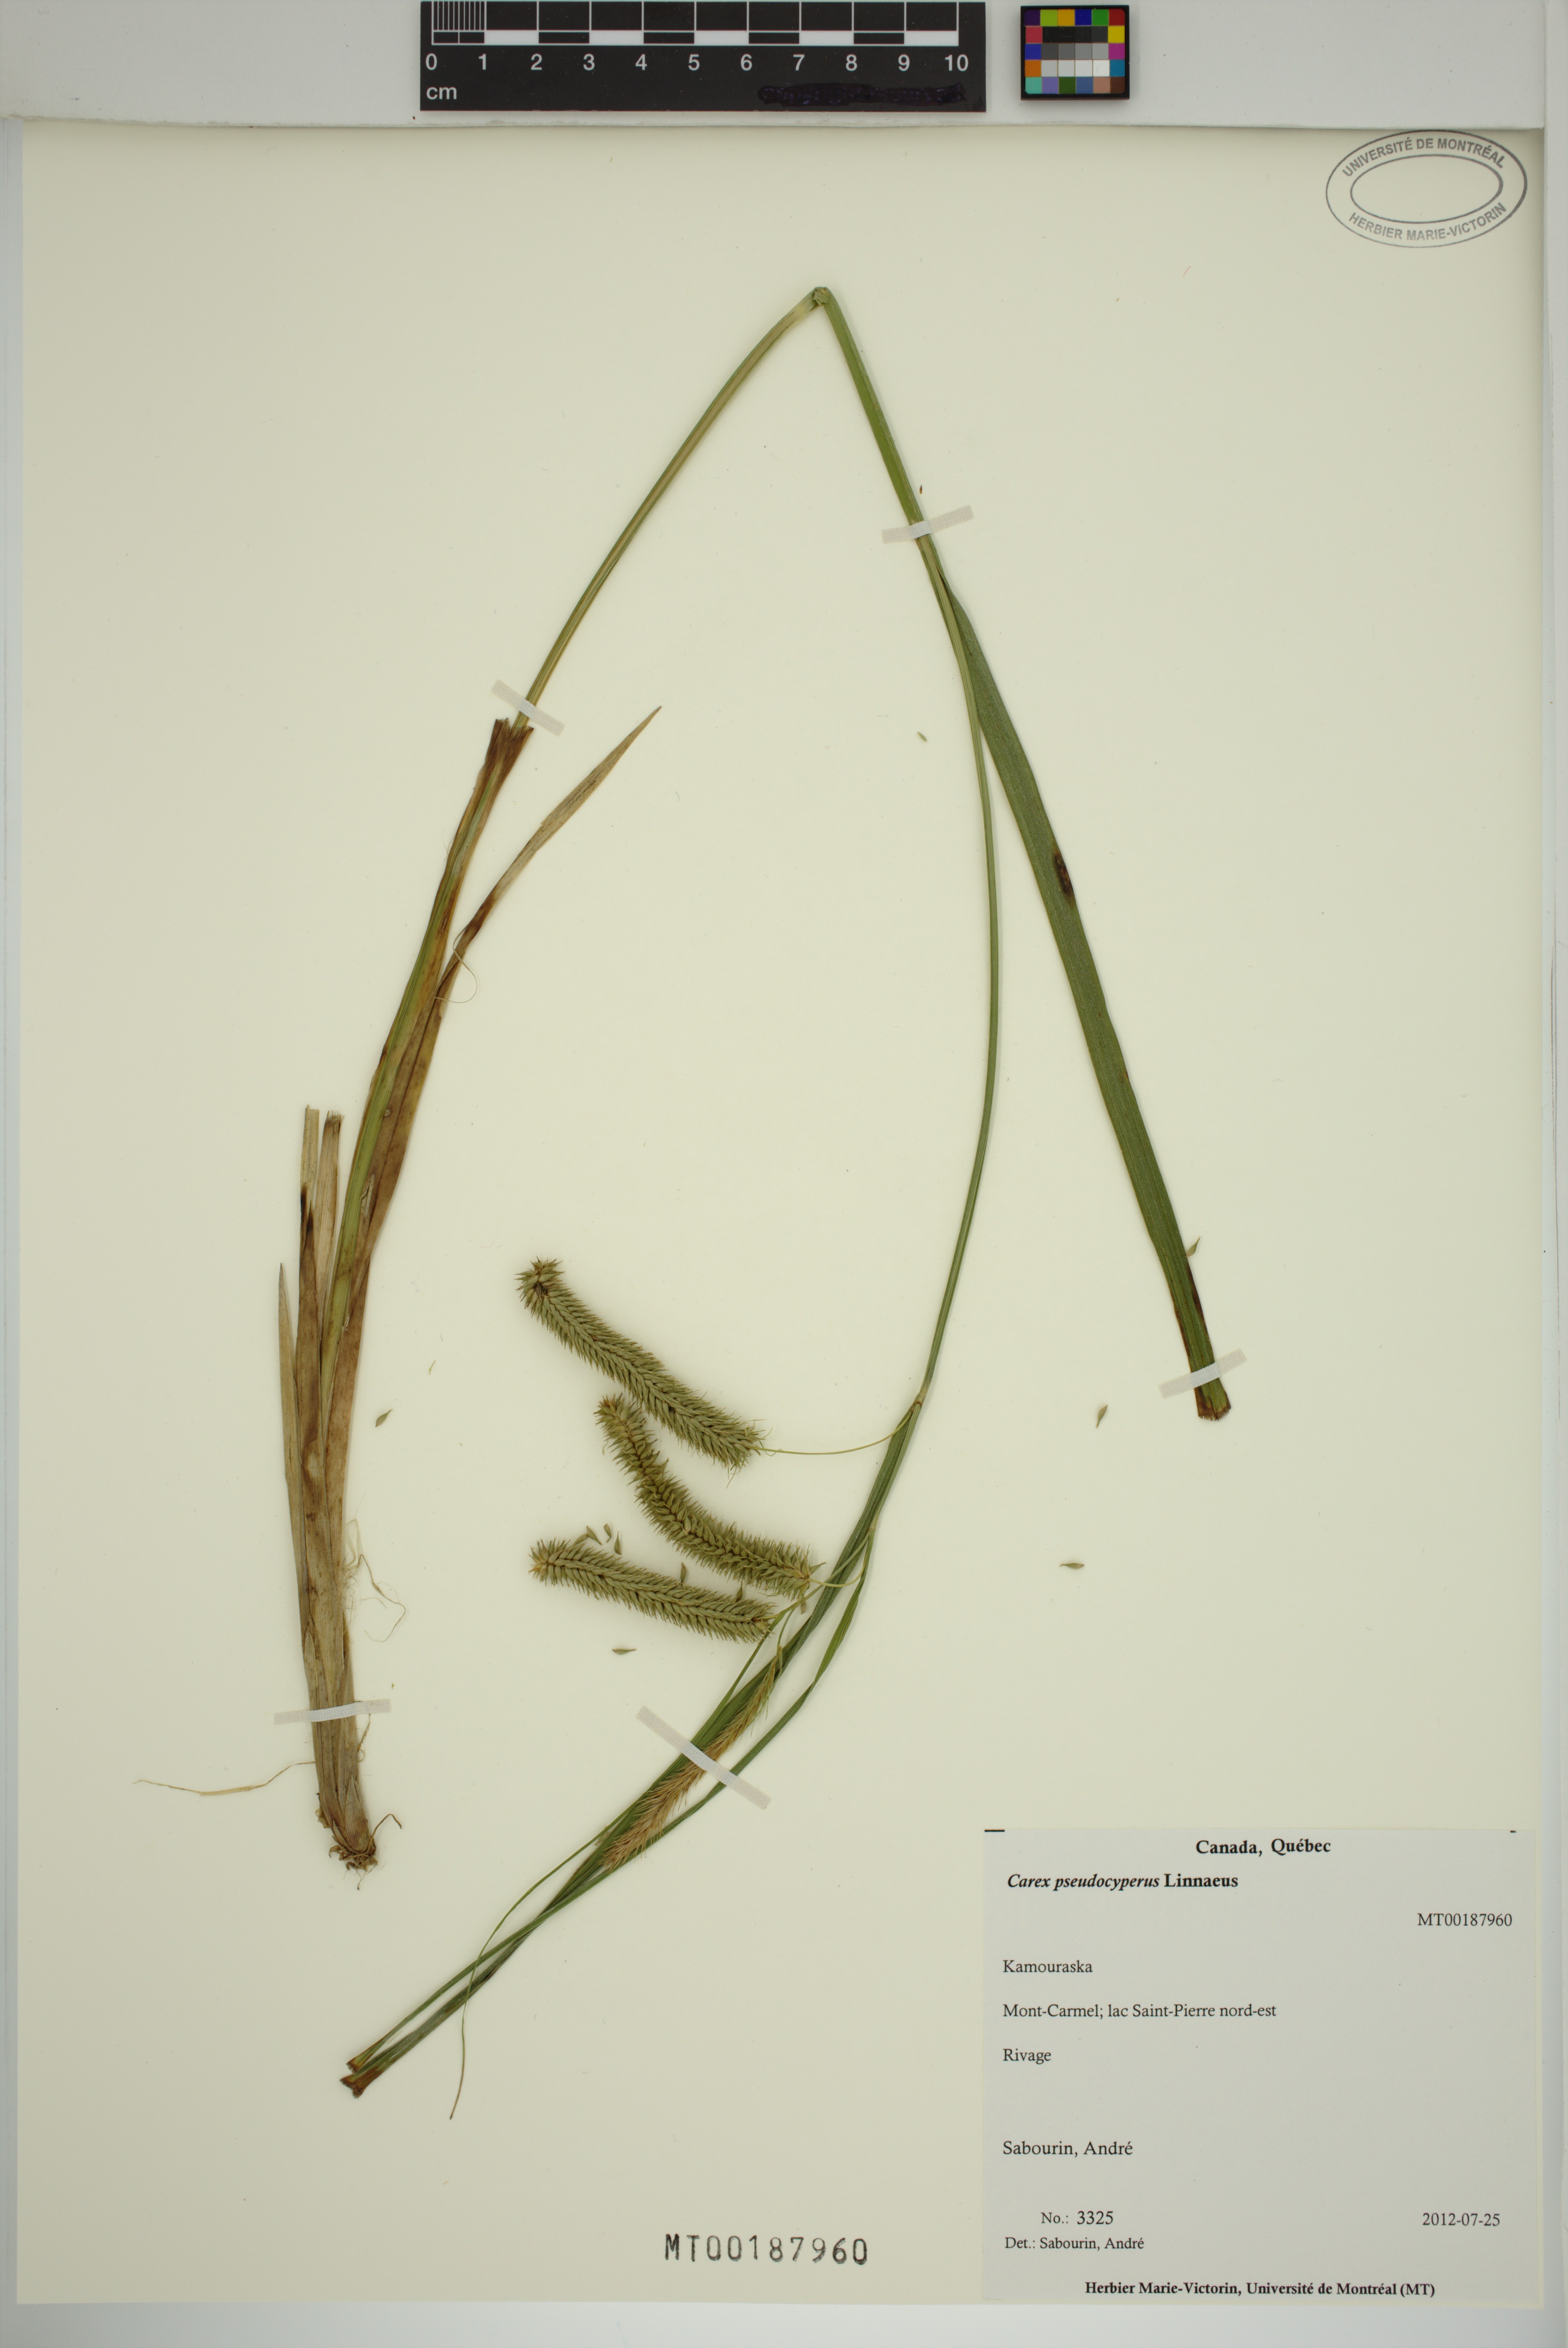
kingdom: Plantae
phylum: Tracheophyta
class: Liliopsida
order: Poales
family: Cyperaceae
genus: Carex
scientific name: Carex pseudocyperus
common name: Cyperus sedge
